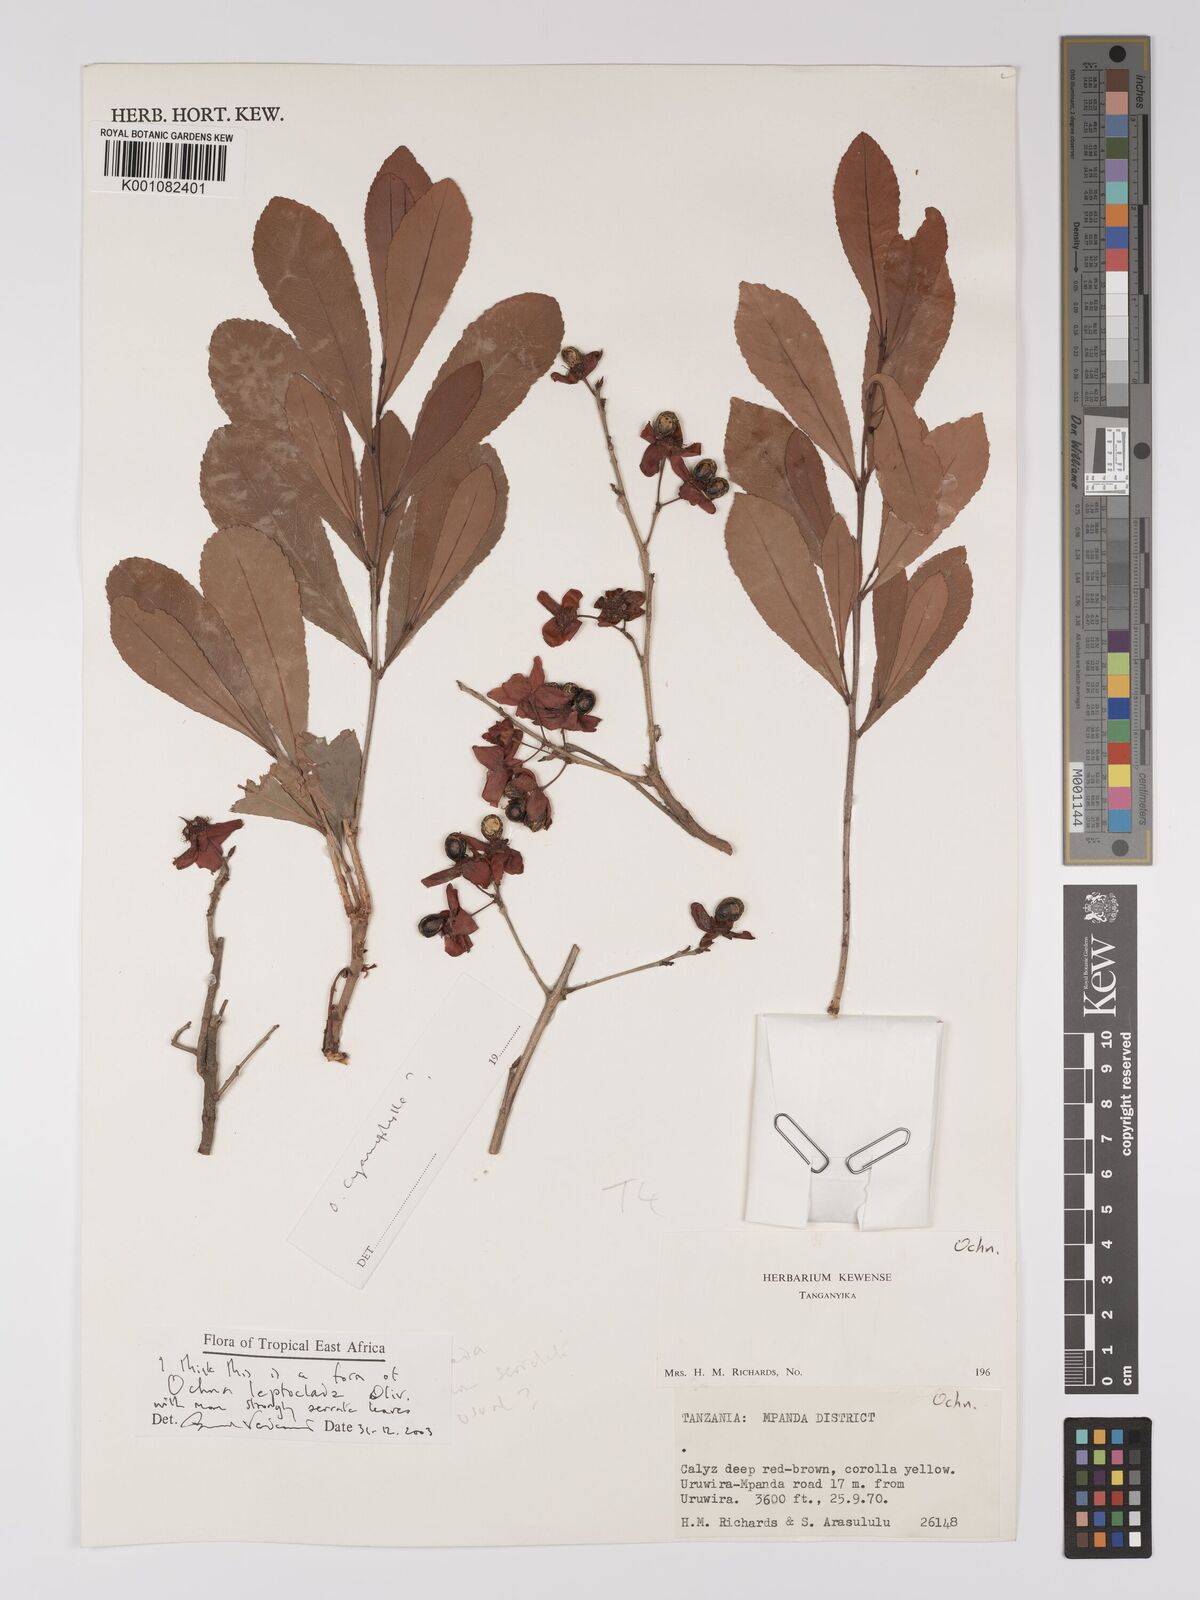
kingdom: Plantae
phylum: Tracheophyta
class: Magnoliopsida
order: Malpighiales
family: Ochnaceae
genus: Ochna
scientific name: Ochna leptoclada
